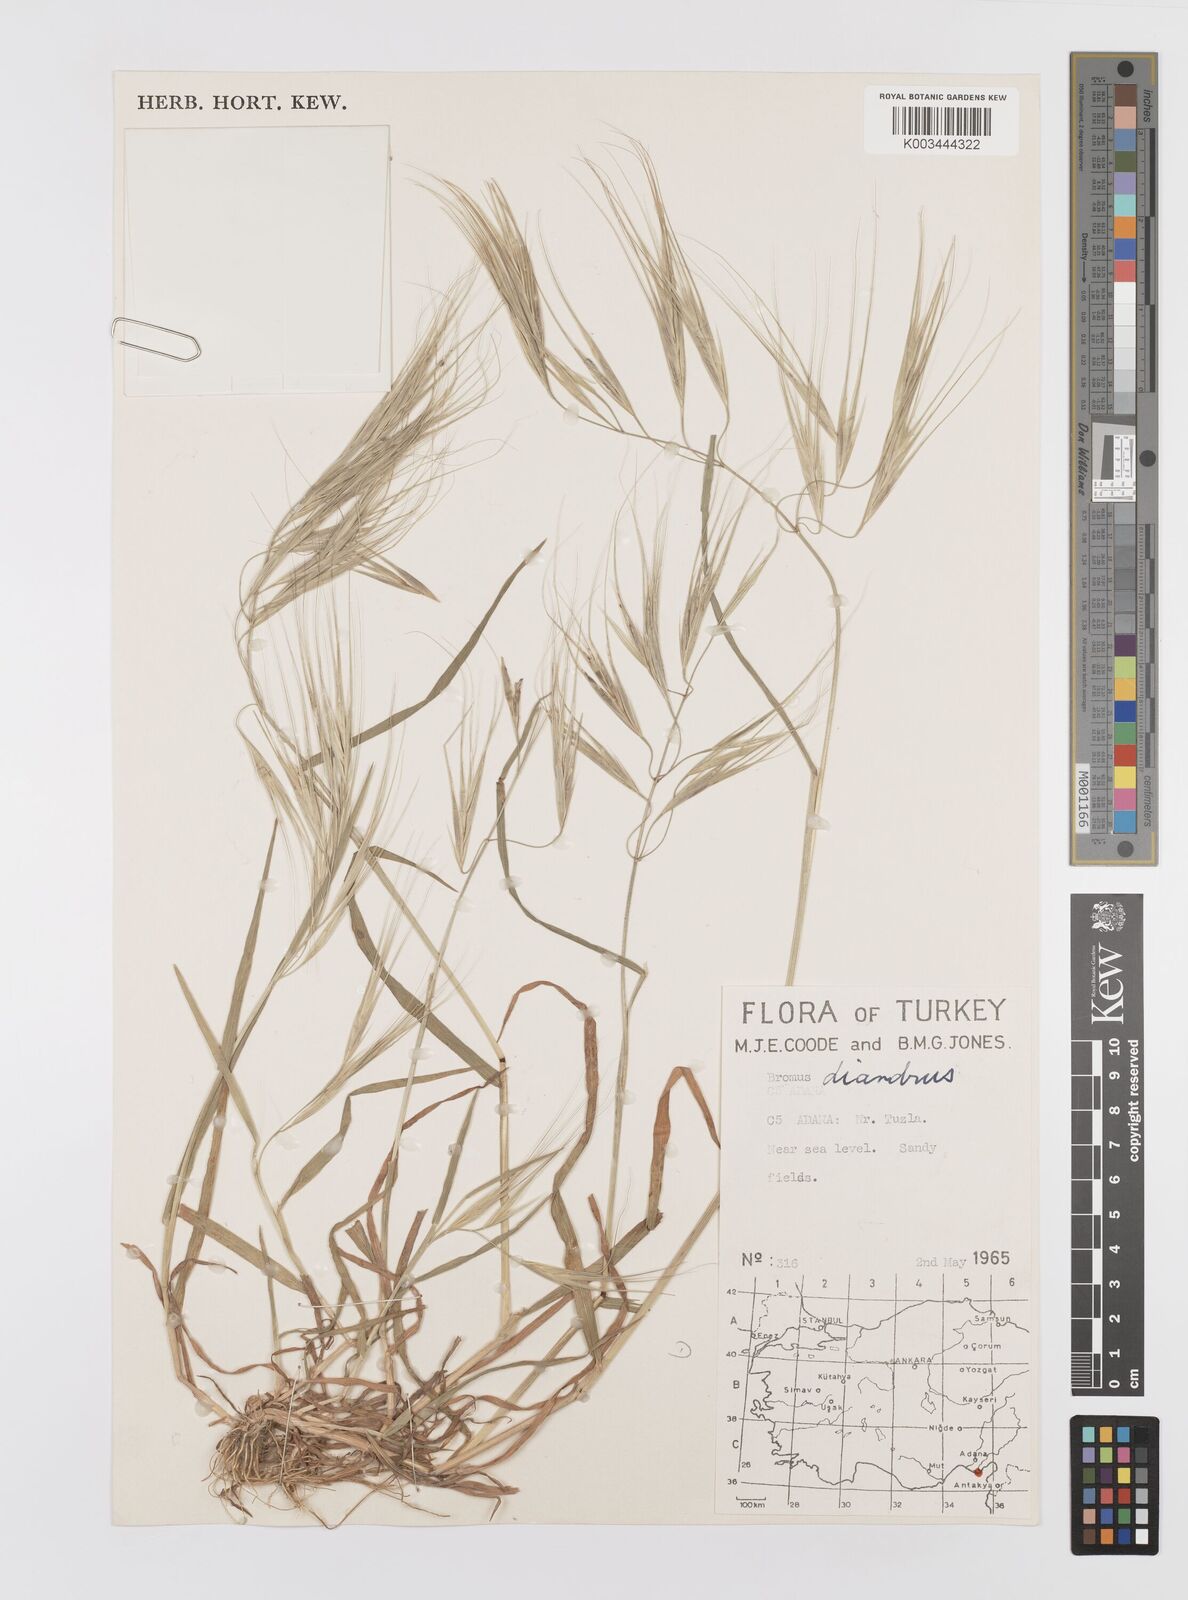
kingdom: Plantae
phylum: Tracheophyta
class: Liliopsida
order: Poales
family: Poaceae
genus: Bromus
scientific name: Bromus diandrus
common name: Ripgut brome
